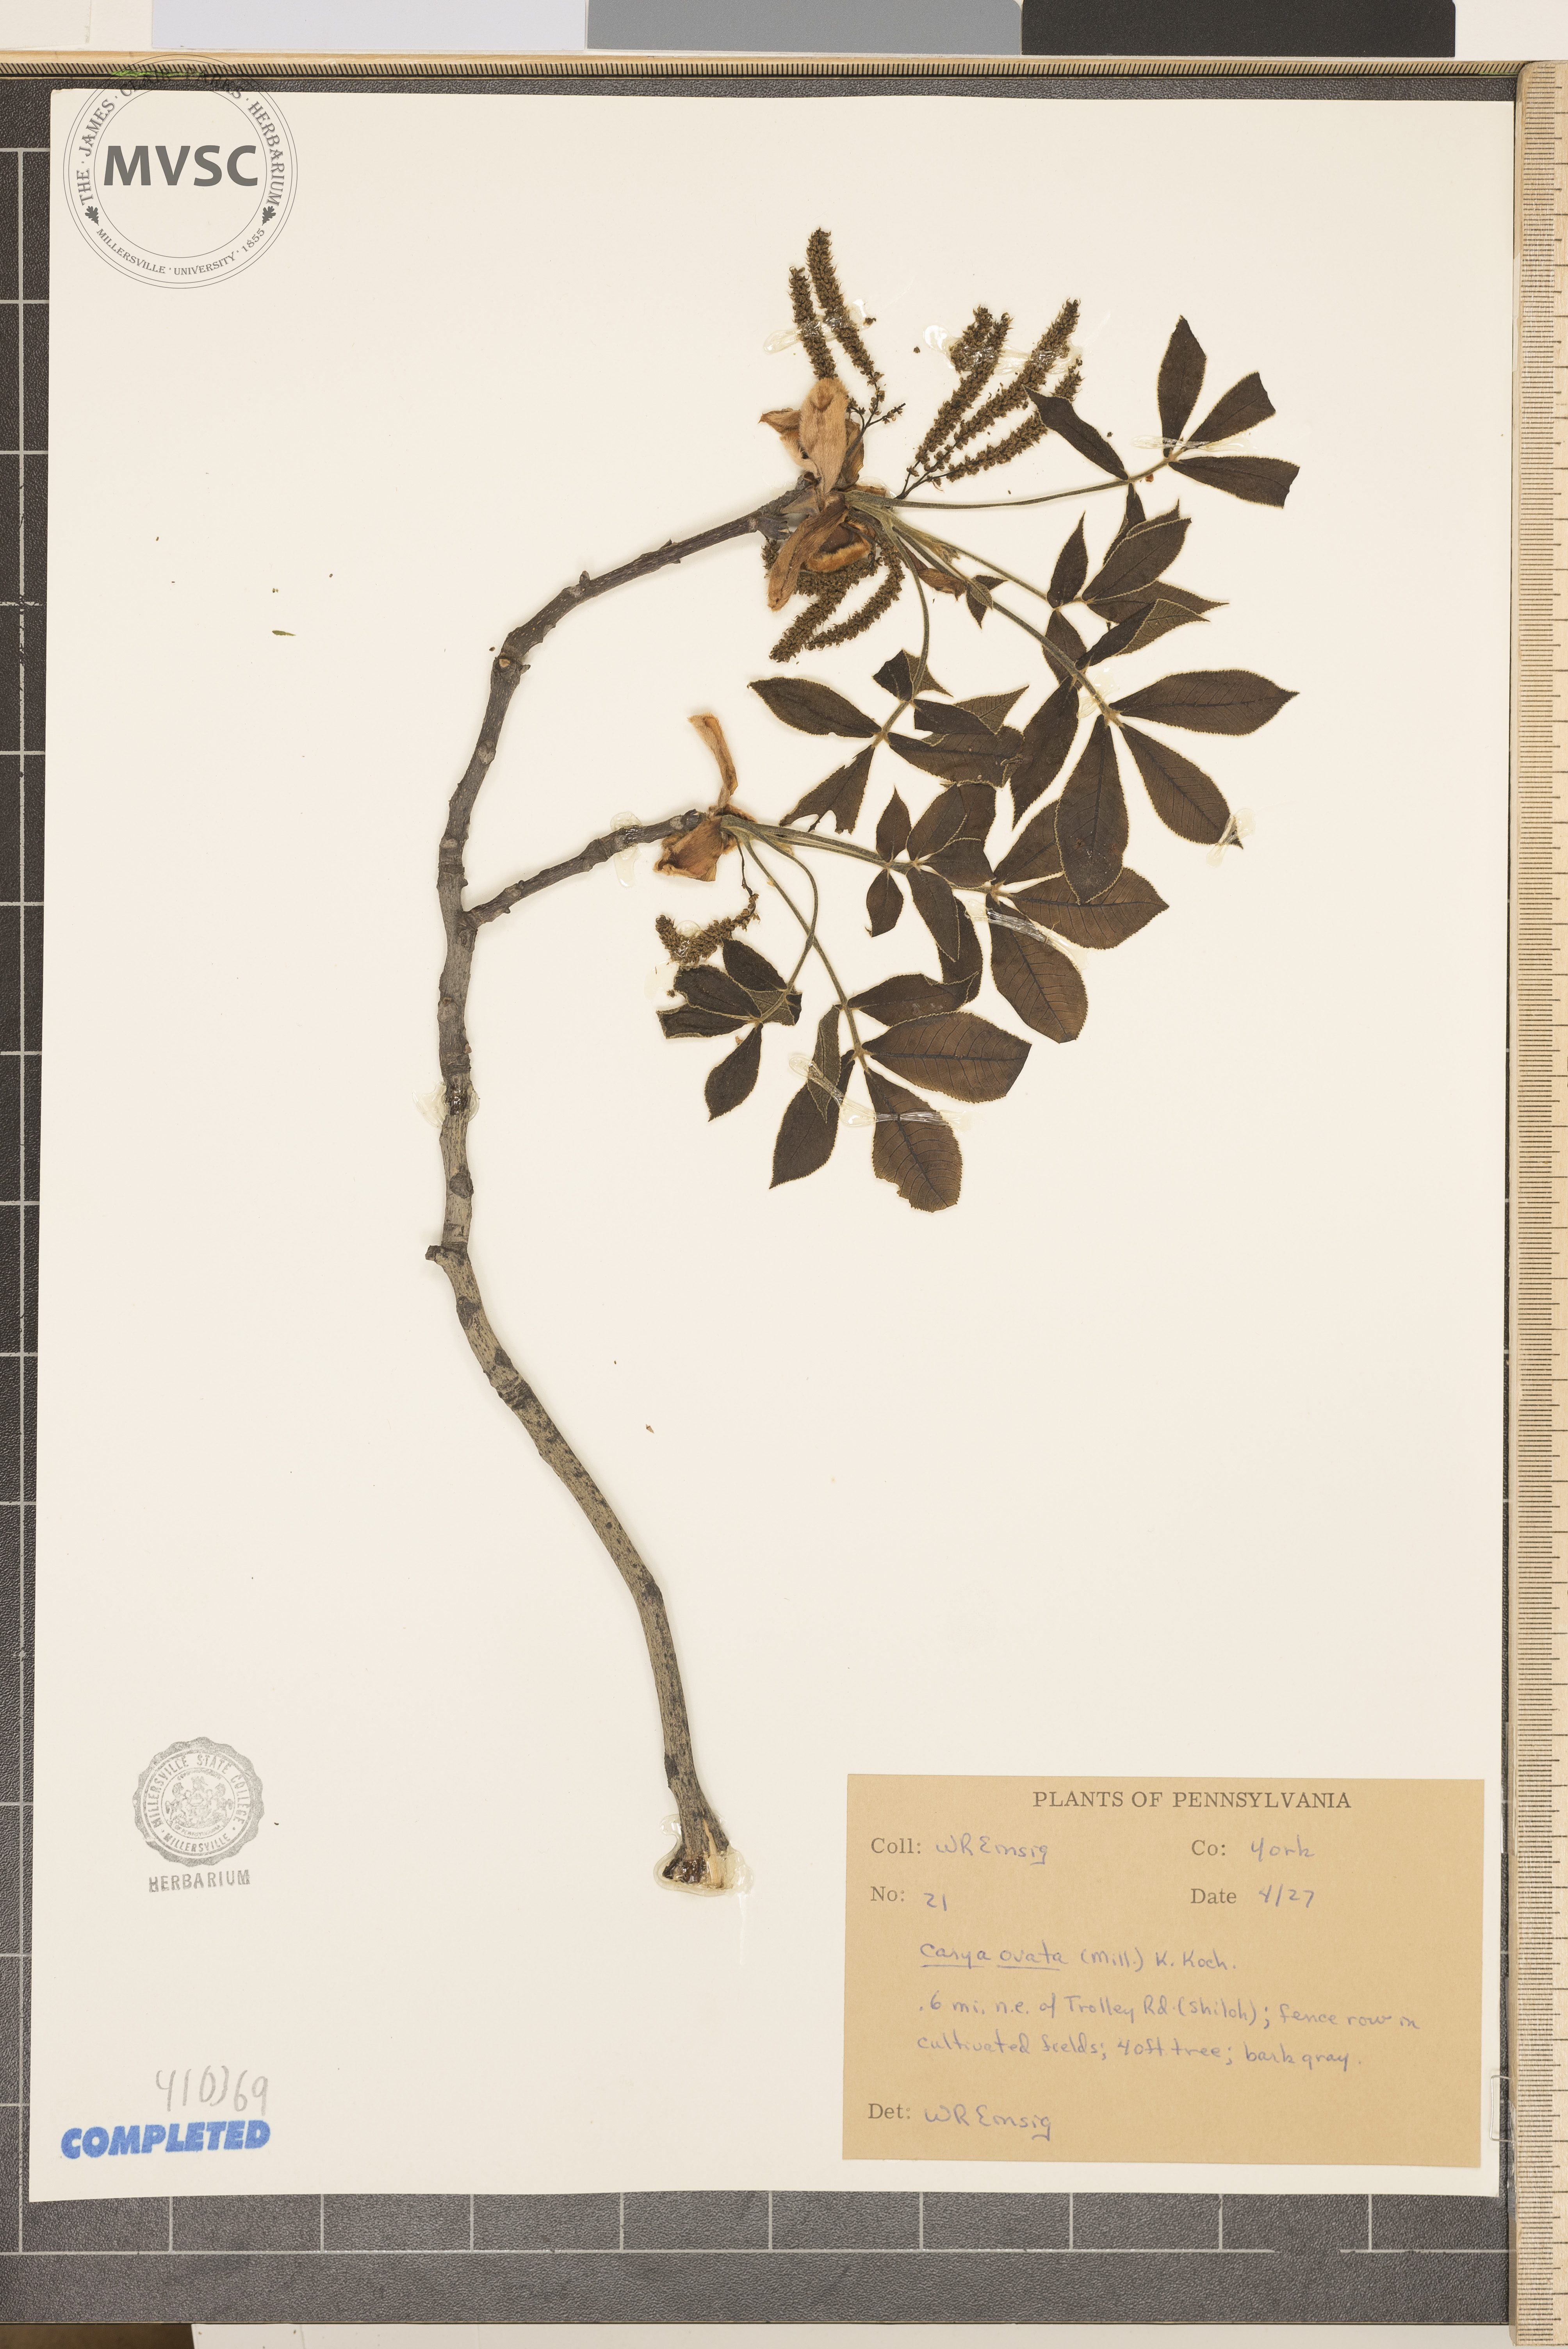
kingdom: Plantae
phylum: Tracheophyta
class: Magnoliopsida
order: Fagales
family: Juglandaceae
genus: Carya
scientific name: Carya ovata
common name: Shagbark hickory
